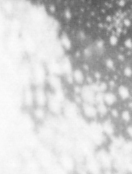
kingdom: Animalia
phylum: Chordata
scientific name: Chordata
